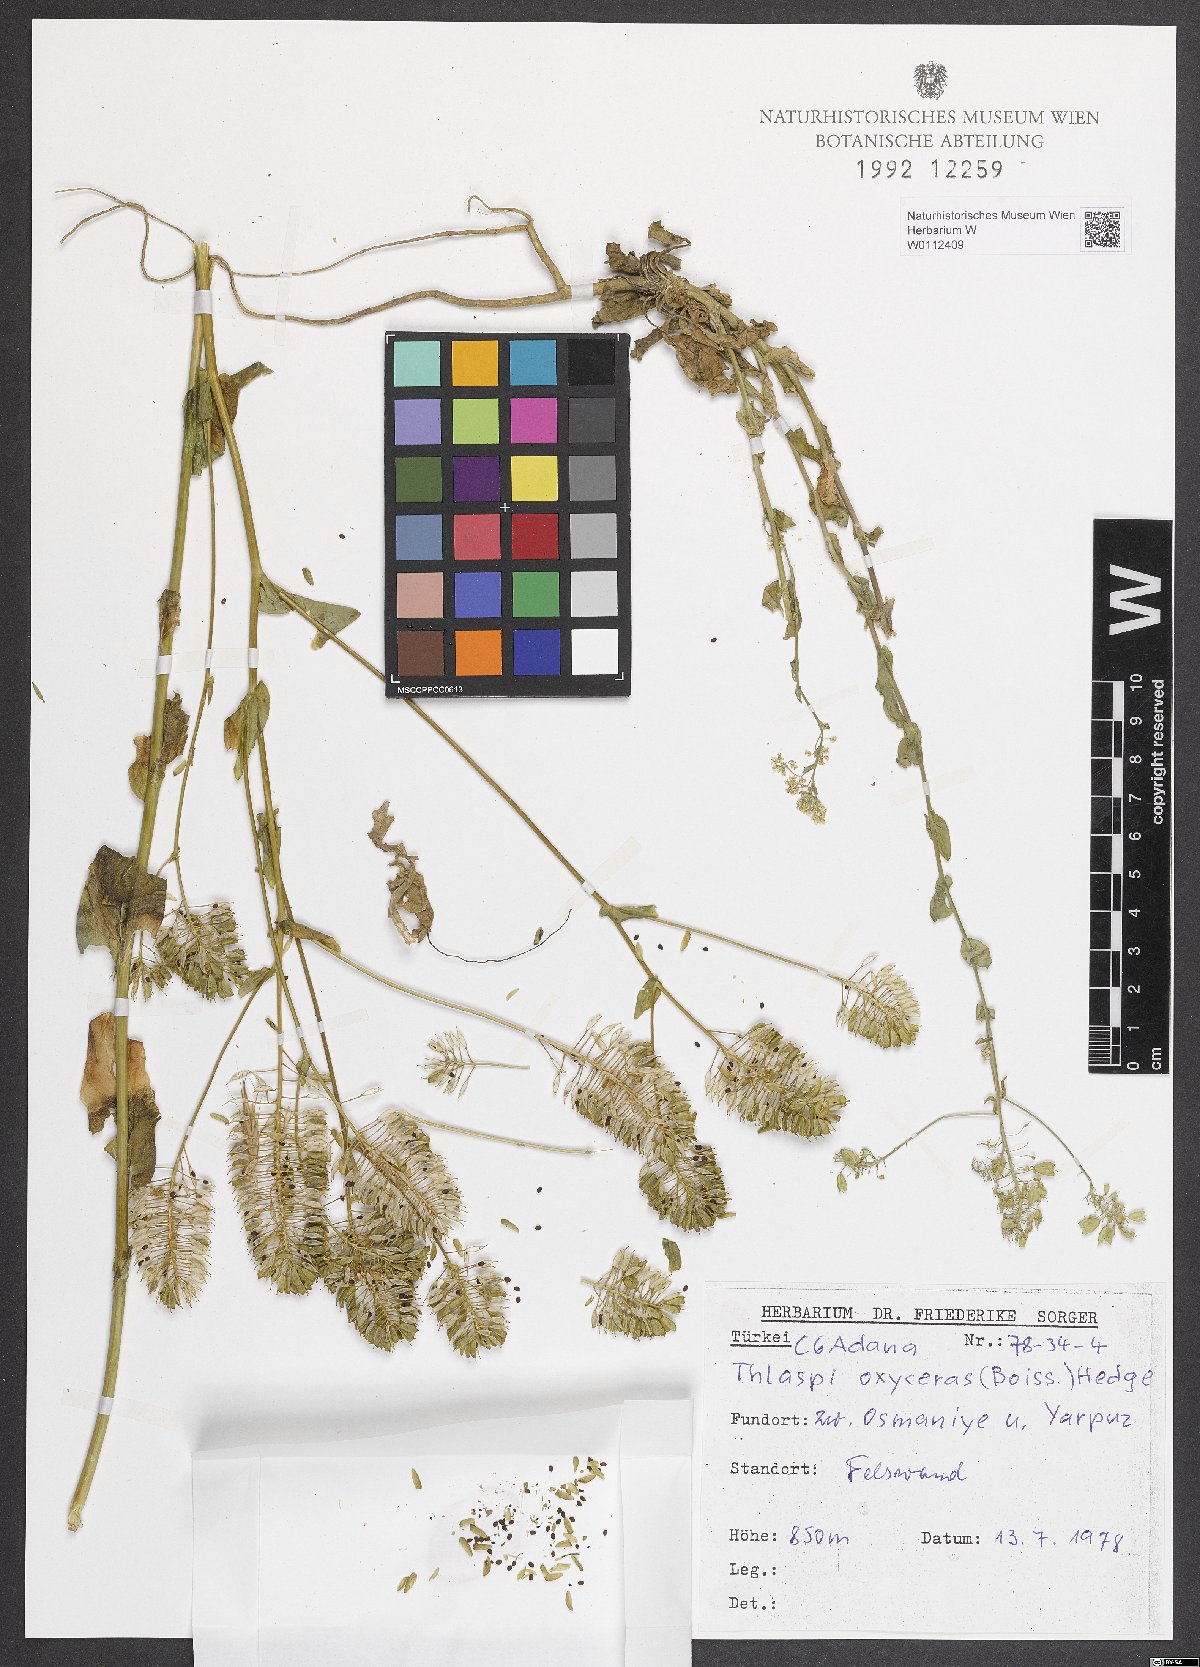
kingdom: Plantae
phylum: Tracheophyta
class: Magnoliopsida
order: Brassicales
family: Brassicaceae
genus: Noccaea
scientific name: Noccaea oxyceras
